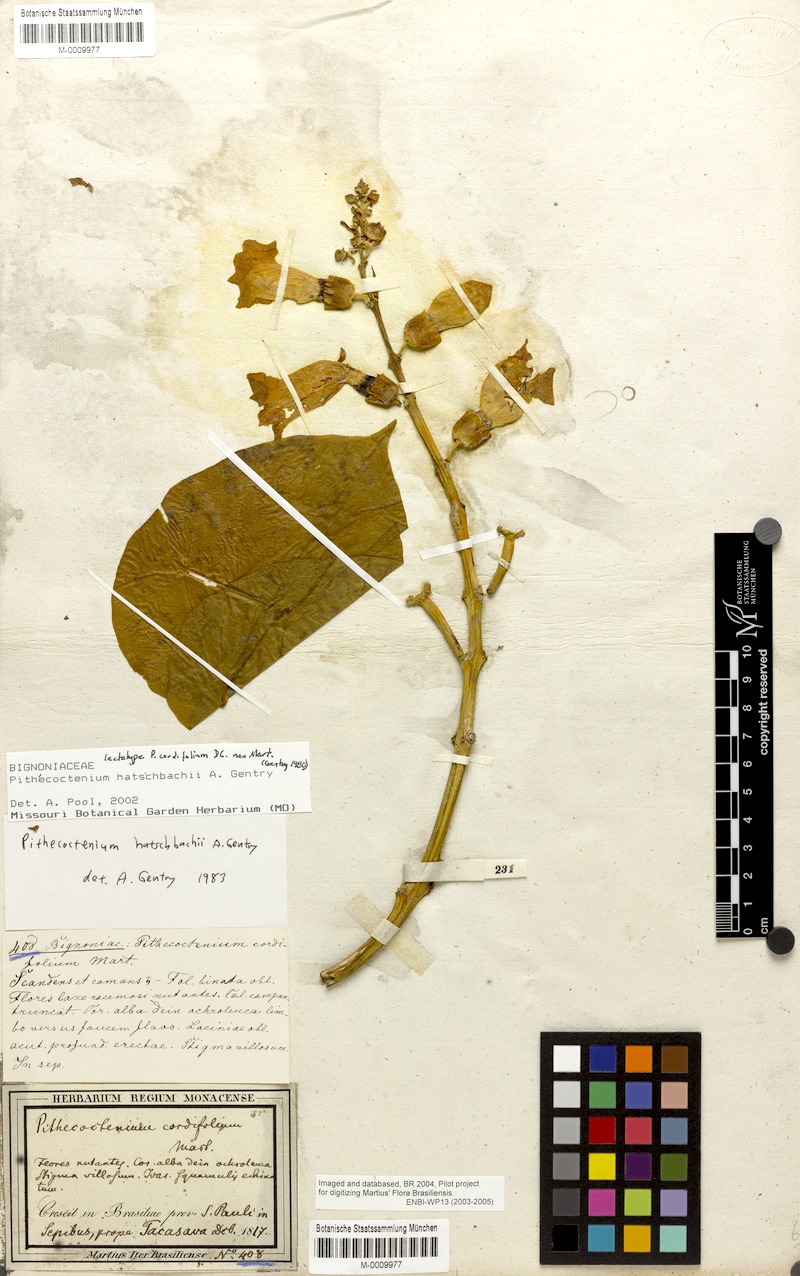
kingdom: Plantae
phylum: Tracheophyta
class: Magnoliopsida
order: Lamiales
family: Bignoniaceae
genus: Amphilophium
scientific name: Amphilophium crucigerum
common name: Monkey comb
